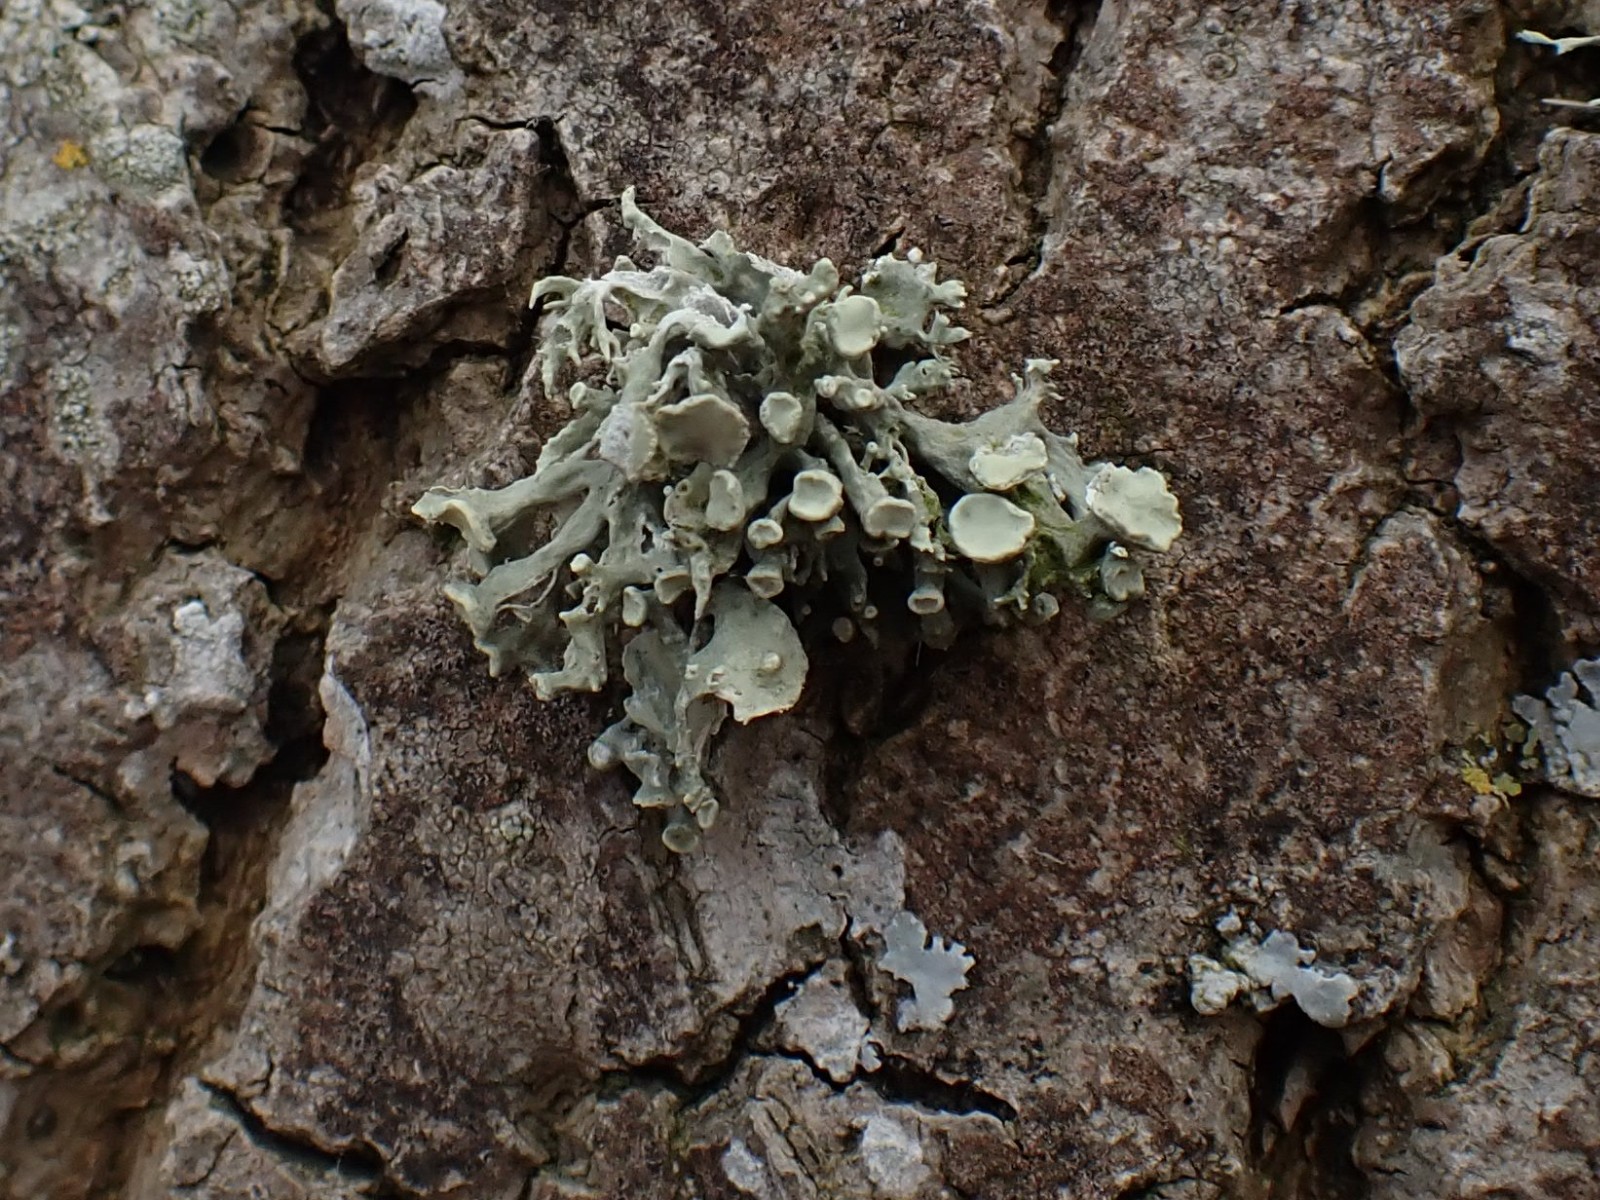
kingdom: Fungi
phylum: Ascomycota
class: Lecanoromycetes
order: Lecanorales
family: Ramalinaceae
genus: Ramalina
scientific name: Ramalina fastigiata
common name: tue-grenlav
